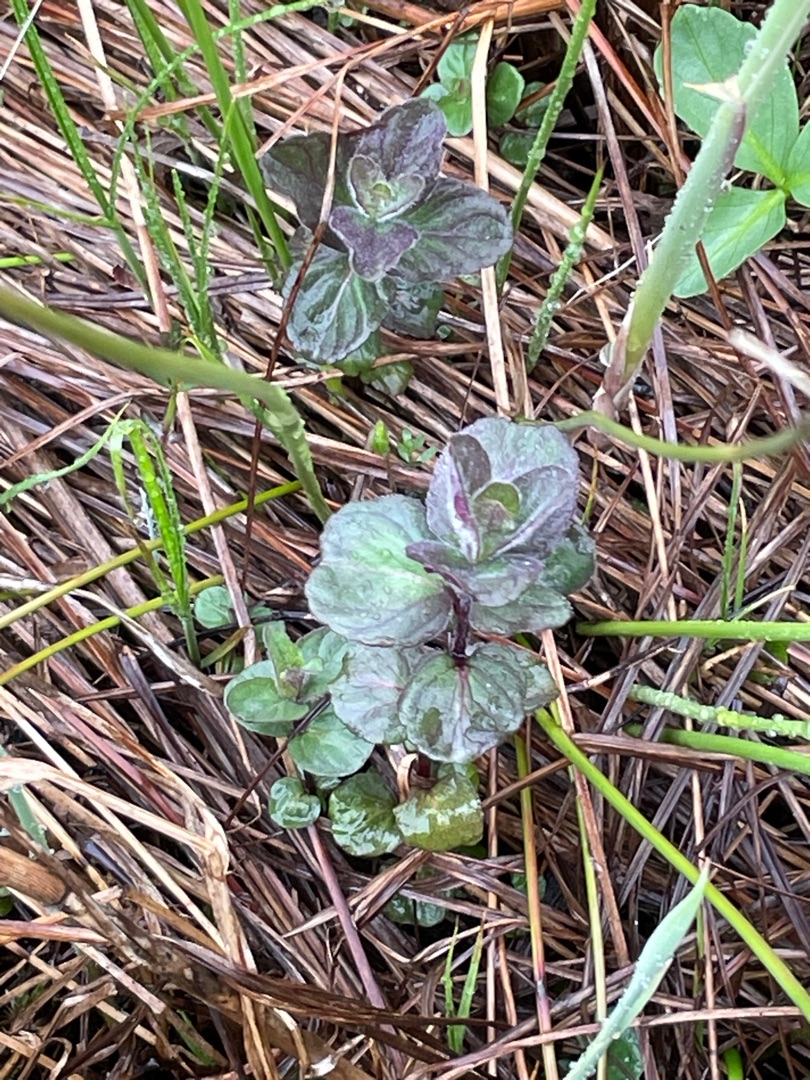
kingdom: Plantae
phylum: Tracheophyta
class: Magnoliopsida
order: Lamiales
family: Lamiaceae
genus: Mentha
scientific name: Mentha aquatica
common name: Vand-mynte
